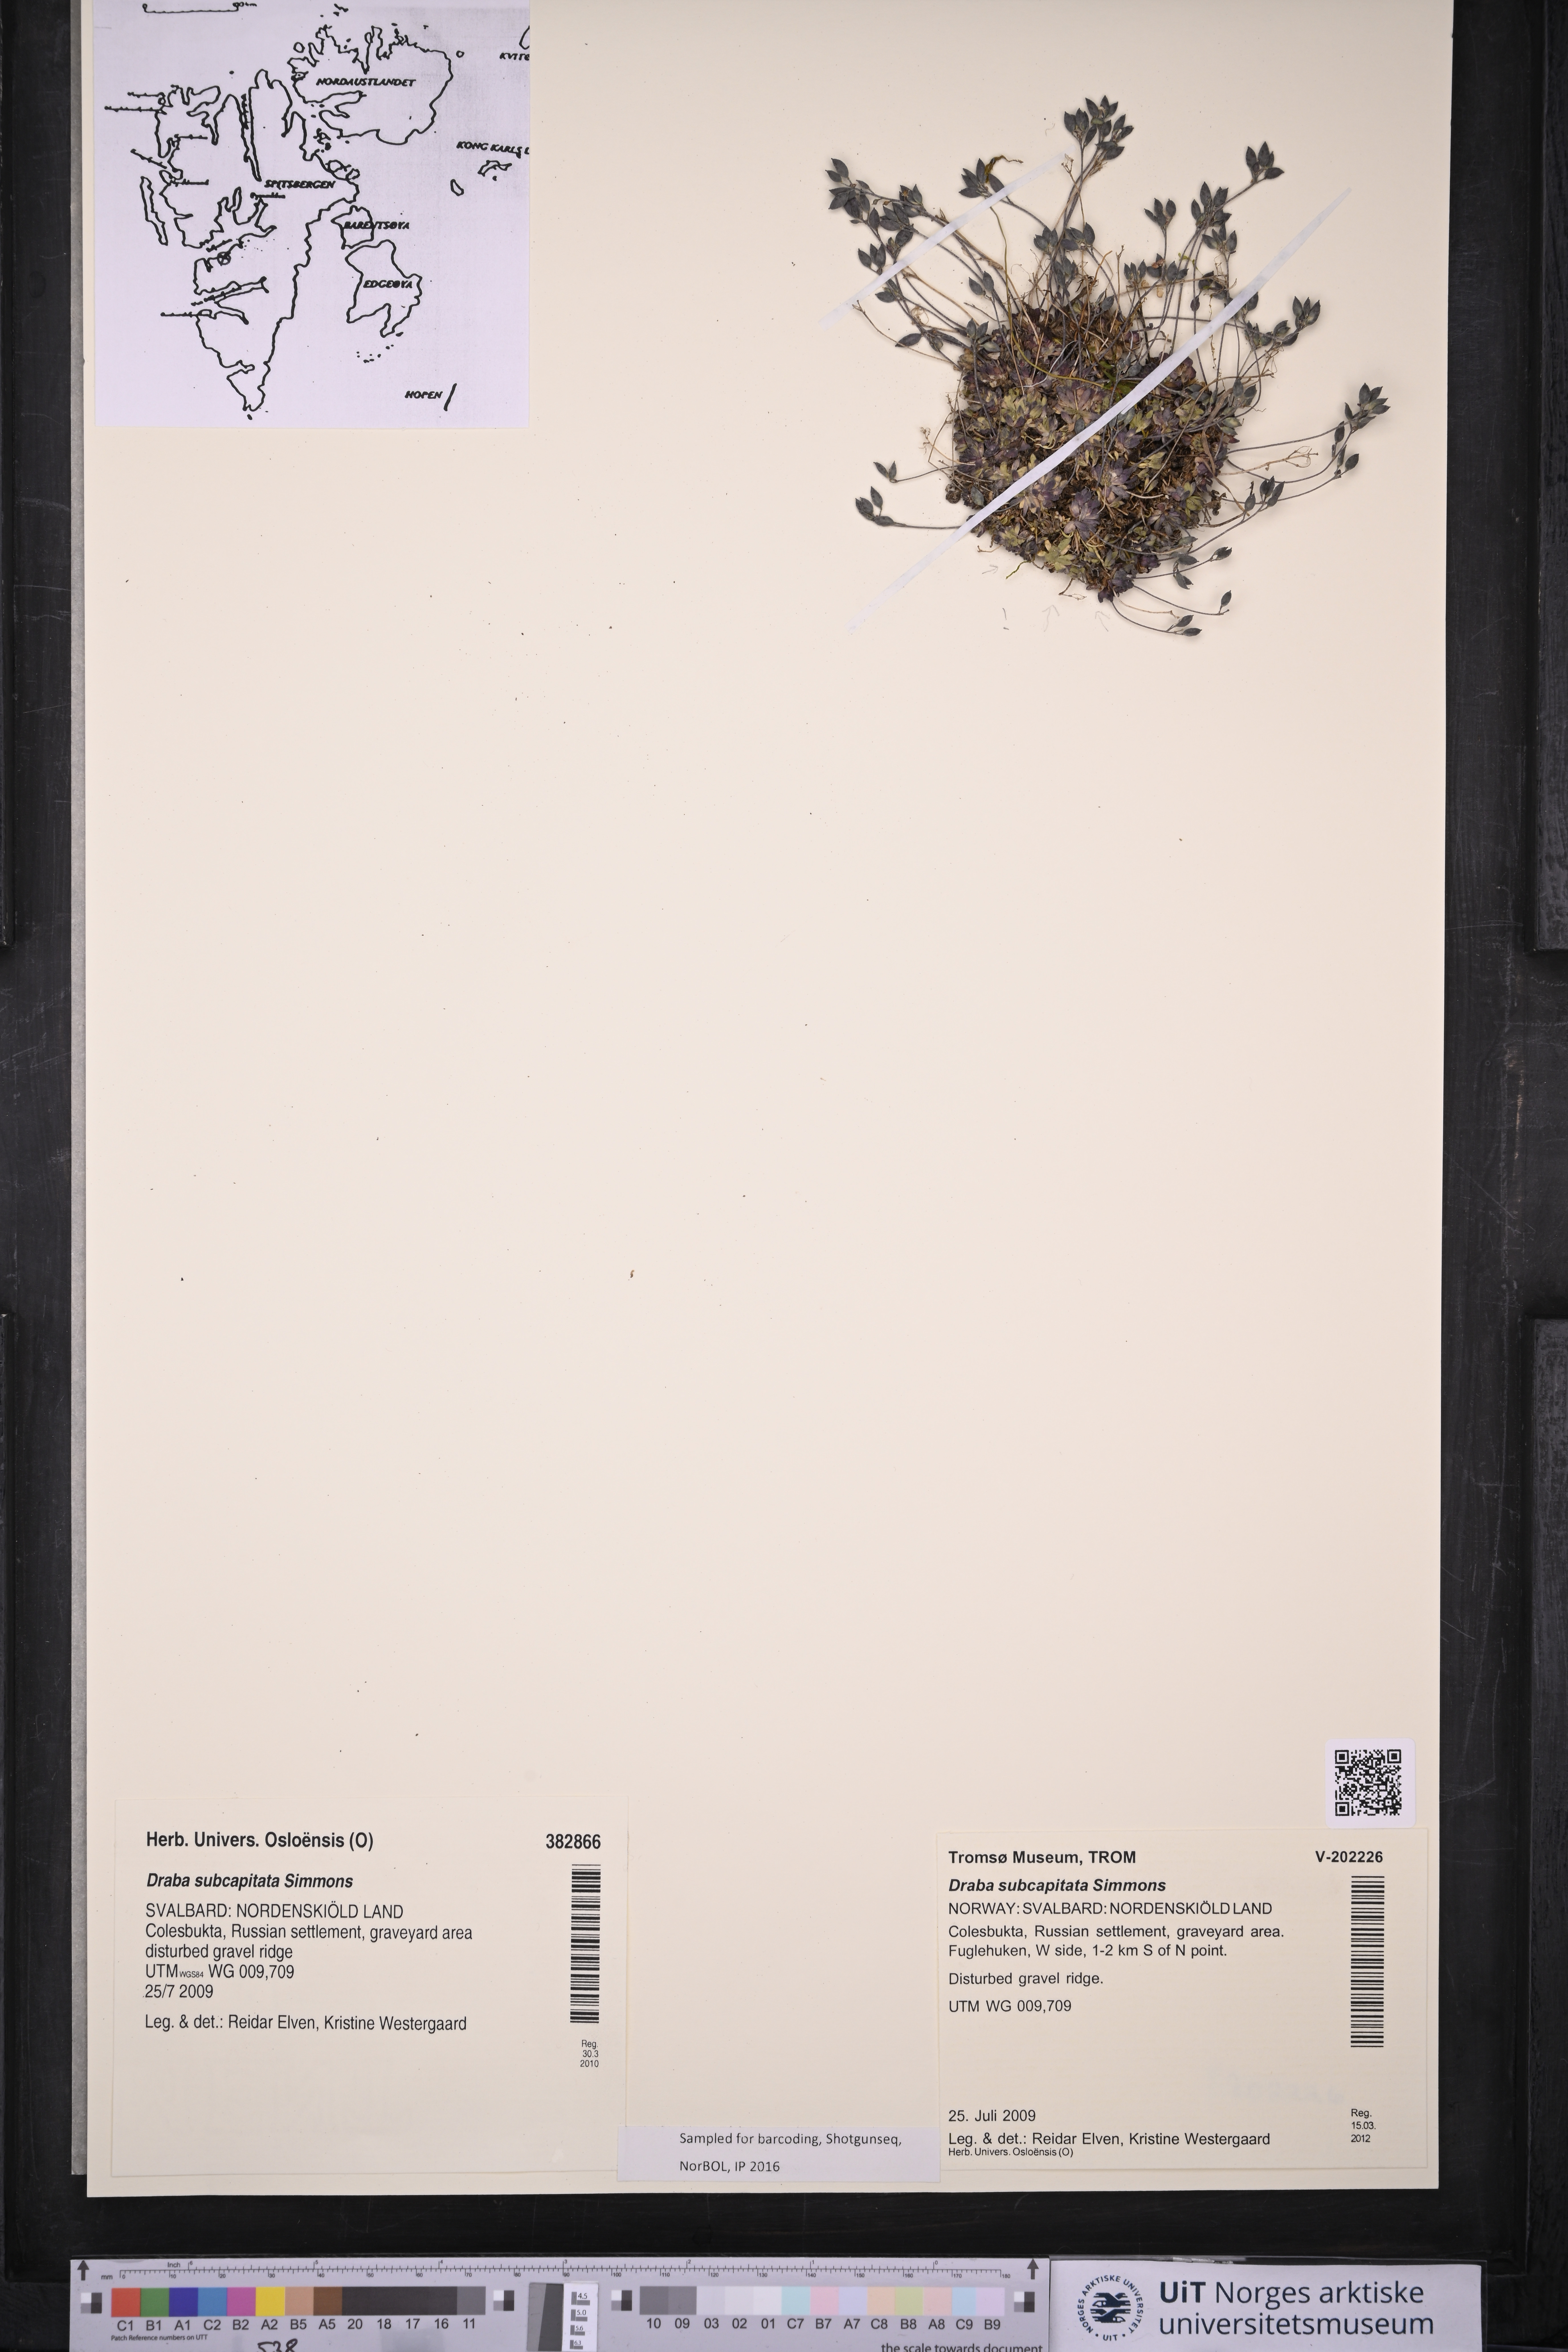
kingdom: Plantae
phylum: Tracheophyta
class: Magnoliopsida
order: Brassicales
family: Brassicaceae
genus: Draba
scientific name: Draba subcapitata
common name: Ellesmere island draba
